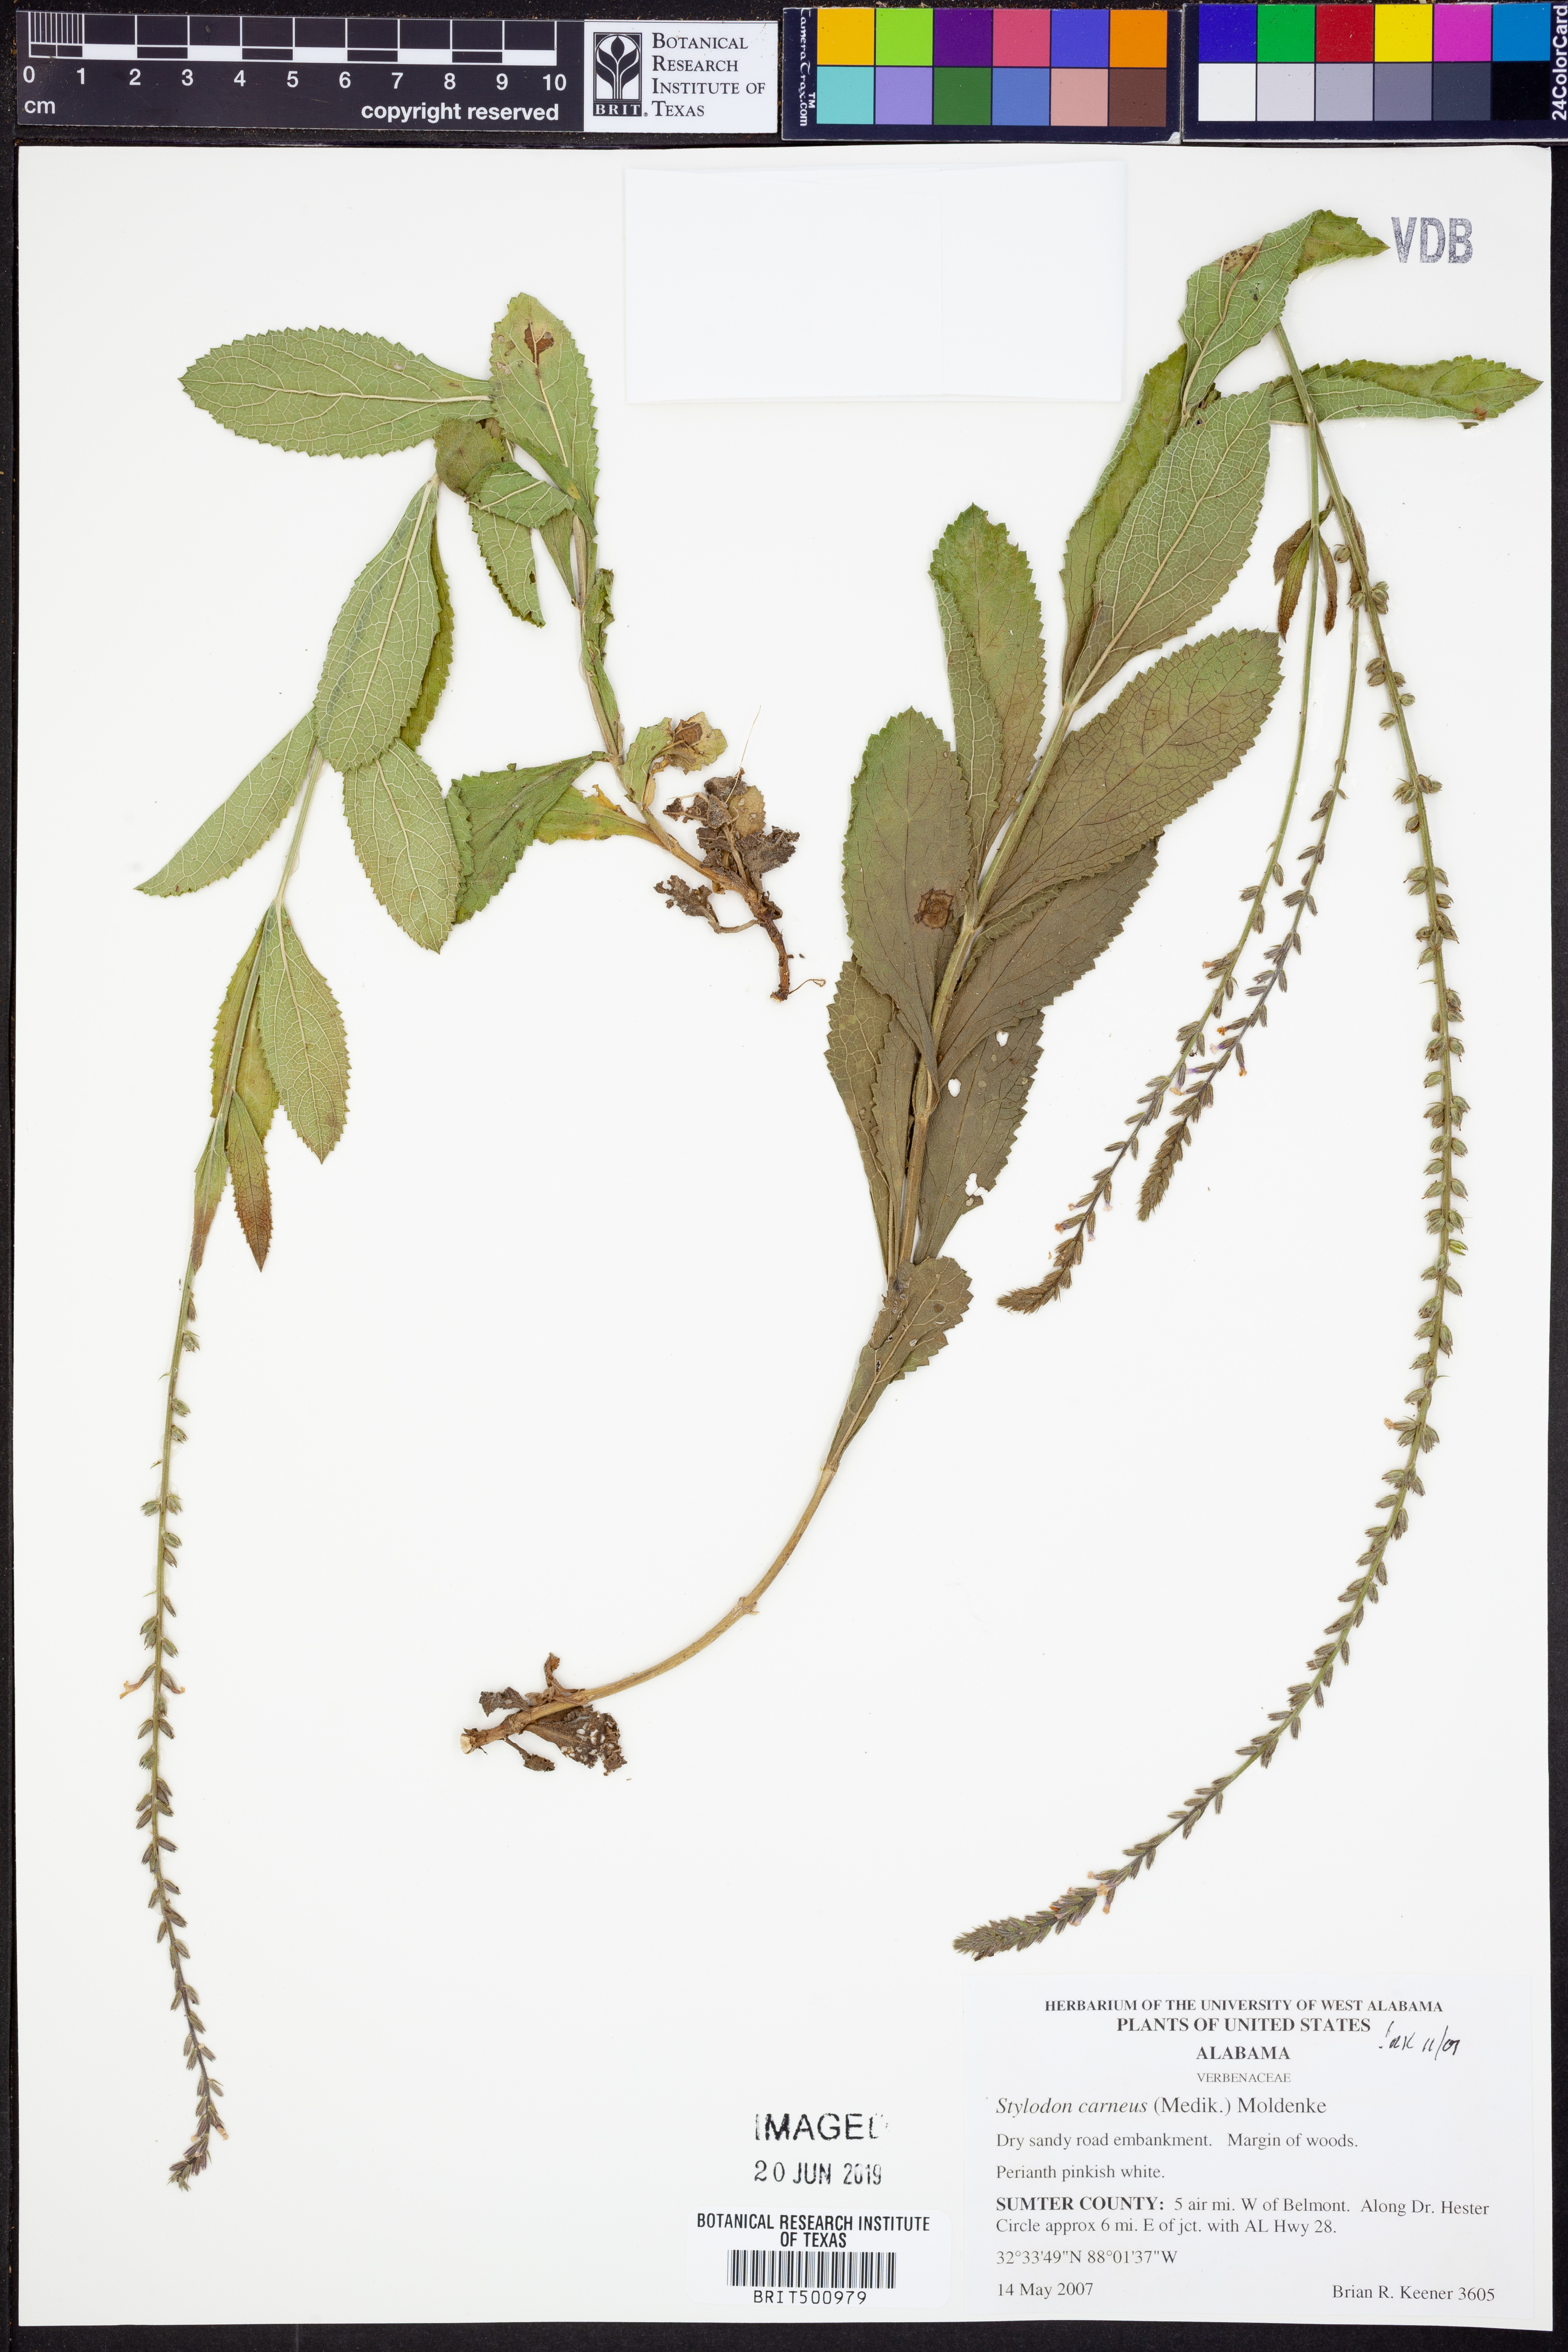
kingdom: Plantae
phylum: Tracheophyta
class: Magnoliopsida
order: Lamiales
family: Verbenaceae
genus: Verbena
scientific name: Verbena carnea
